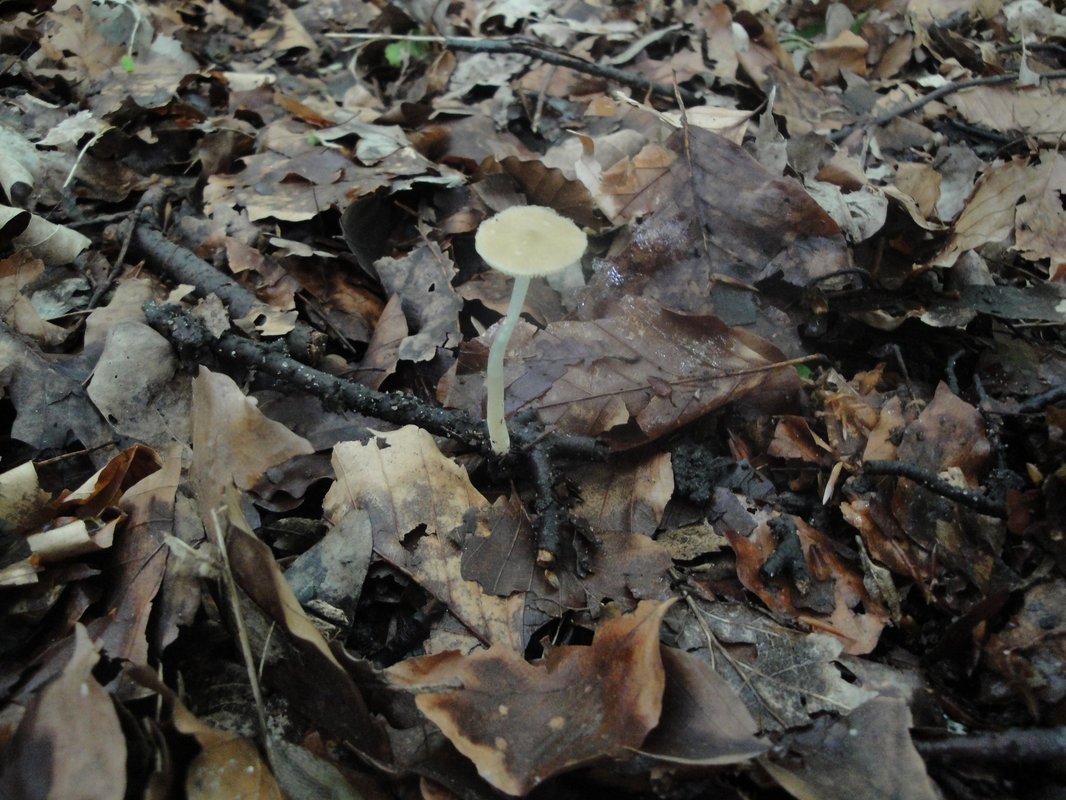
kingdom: Fungi
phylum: Basidiomycota
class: Agaricomycetes
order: Agaricales
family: Porotheleaceae
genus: Hydropodia
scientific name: Hydropodia subalpina
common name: vår-fnugfod
